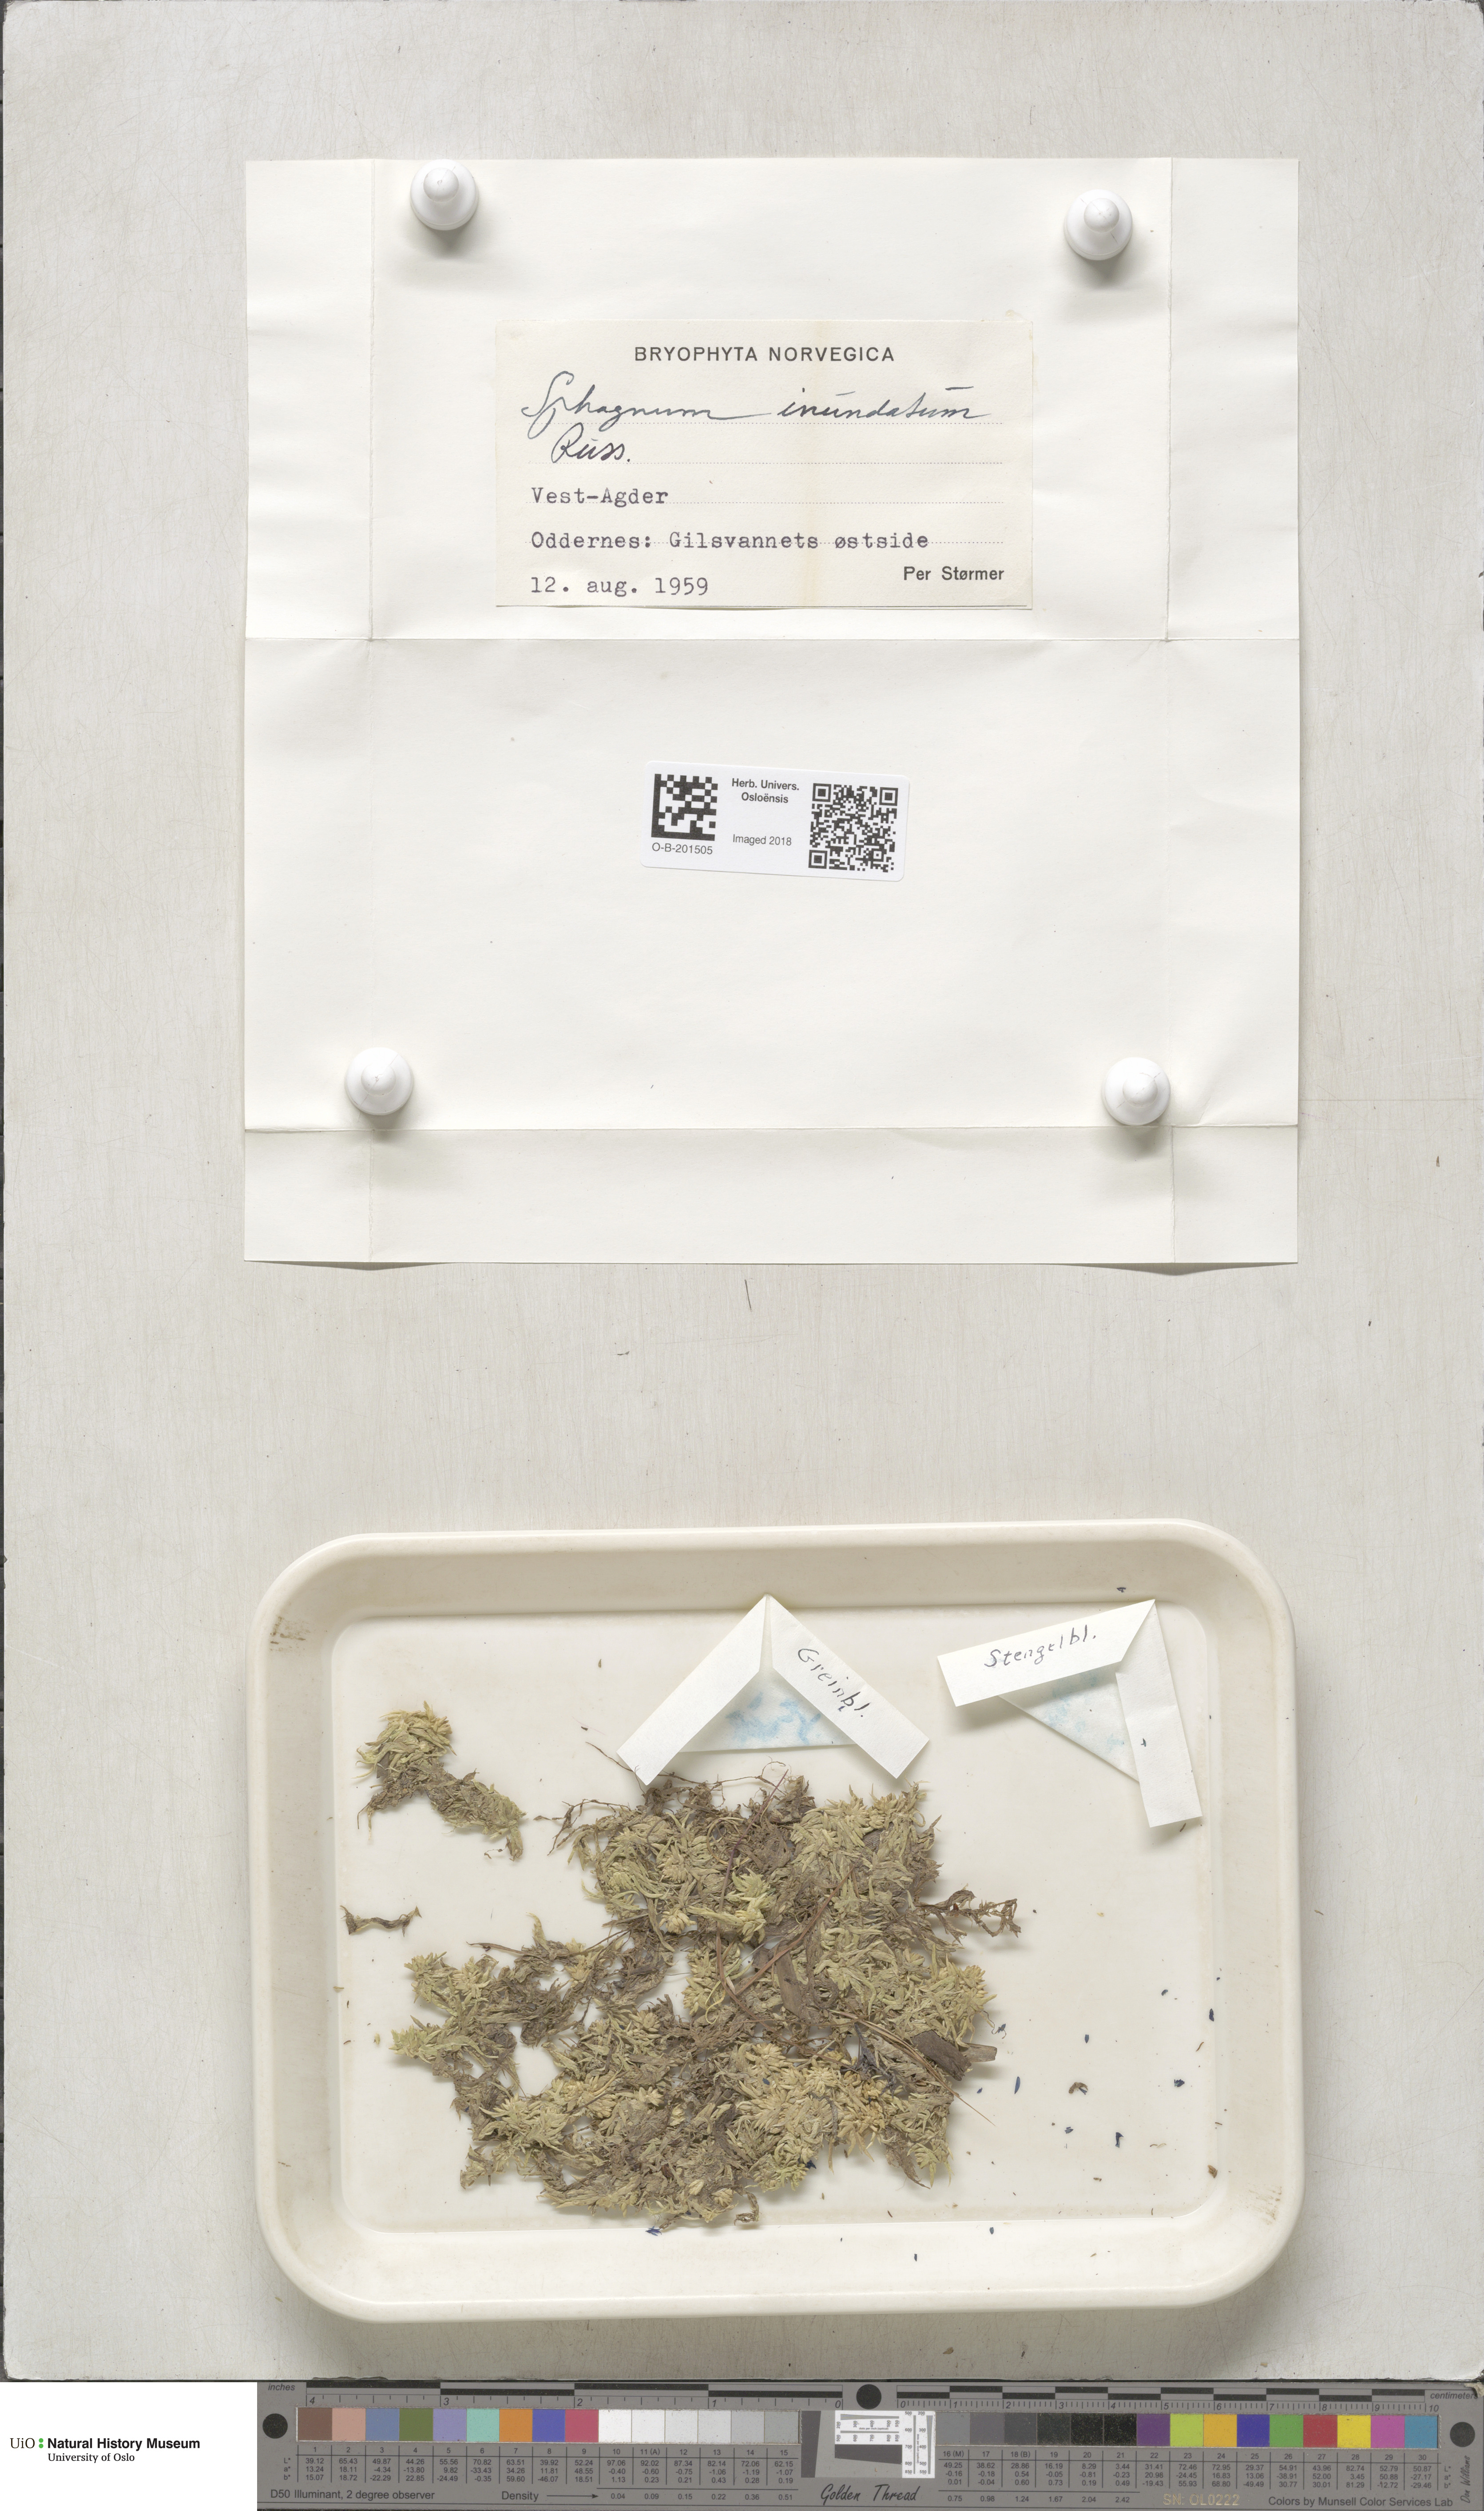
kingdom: Plantae
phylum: Bryophyta
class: Sphagnopsida
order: Sphagnales
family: Sphagnaceae
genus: Sphagnum
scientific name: Sphagnum inundatum
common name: Lesser cow-horn bog-moss
